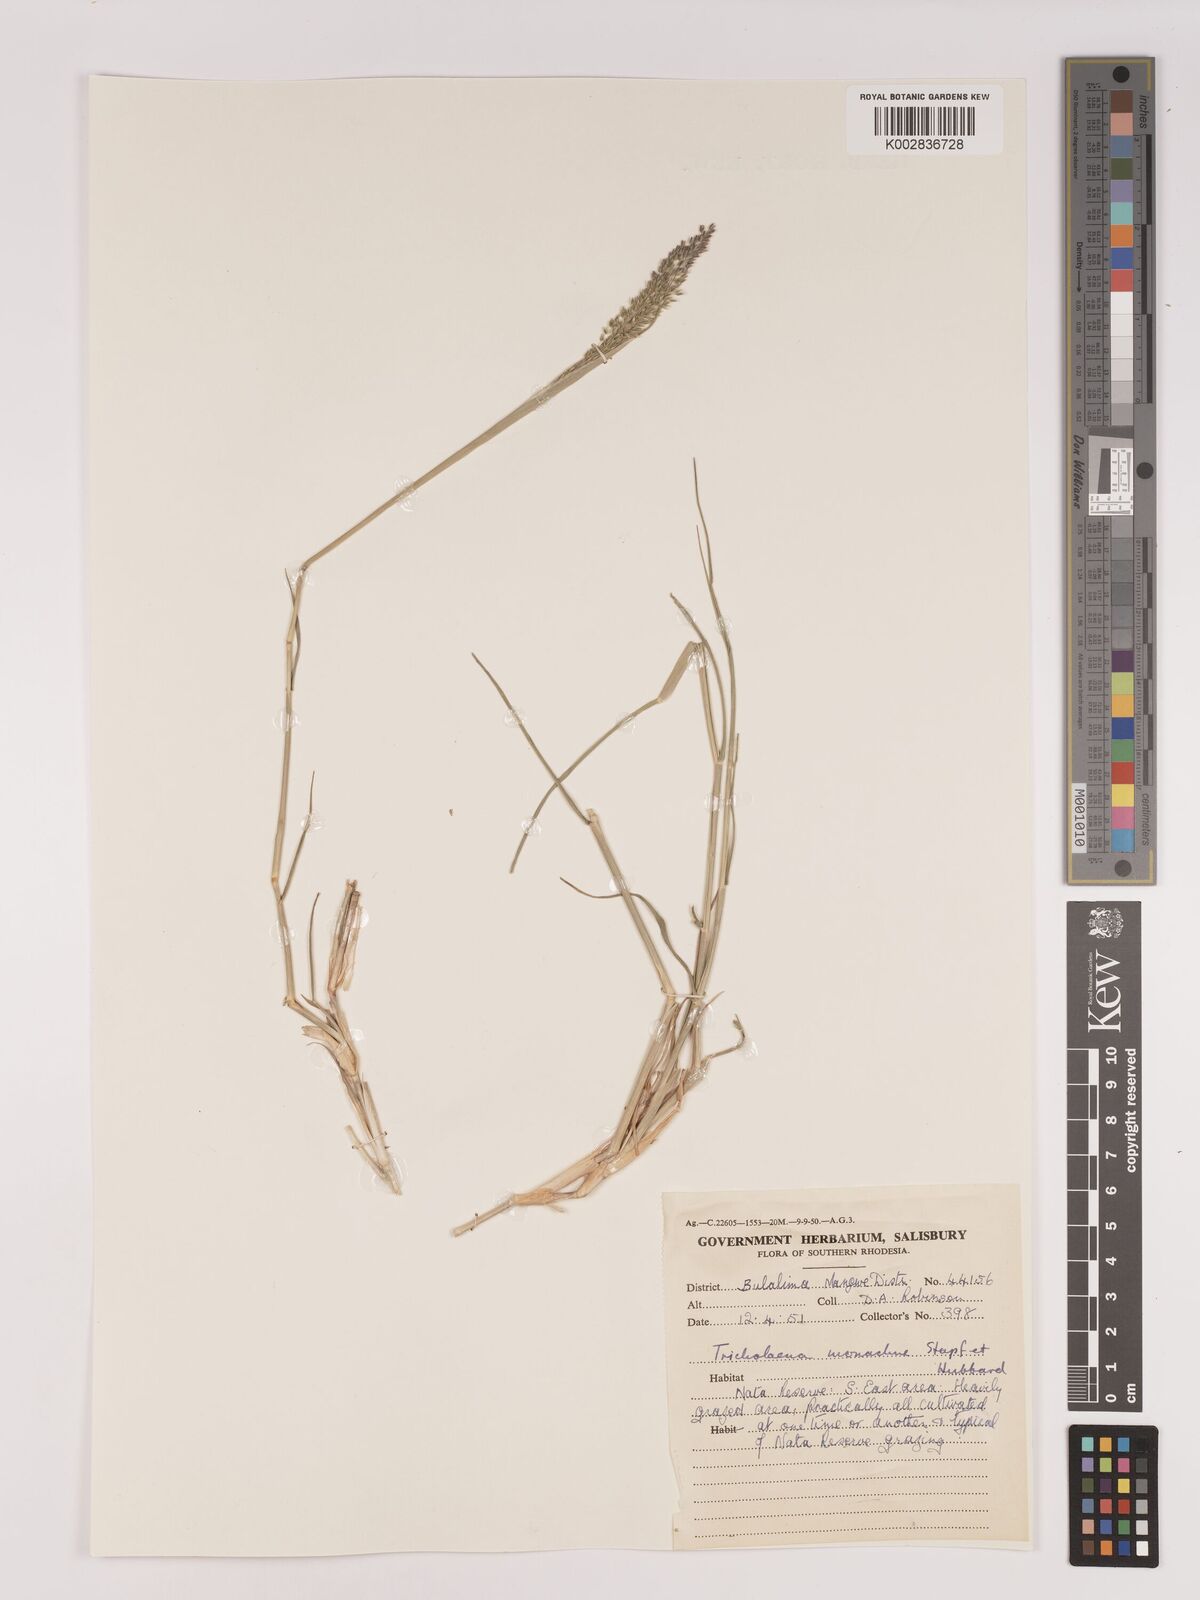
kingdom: Plantae
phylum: Tracheophyta
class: Liliopsida
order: Poales
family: Poaceae
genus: Tricholaena
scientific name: Tricholaena monachne
